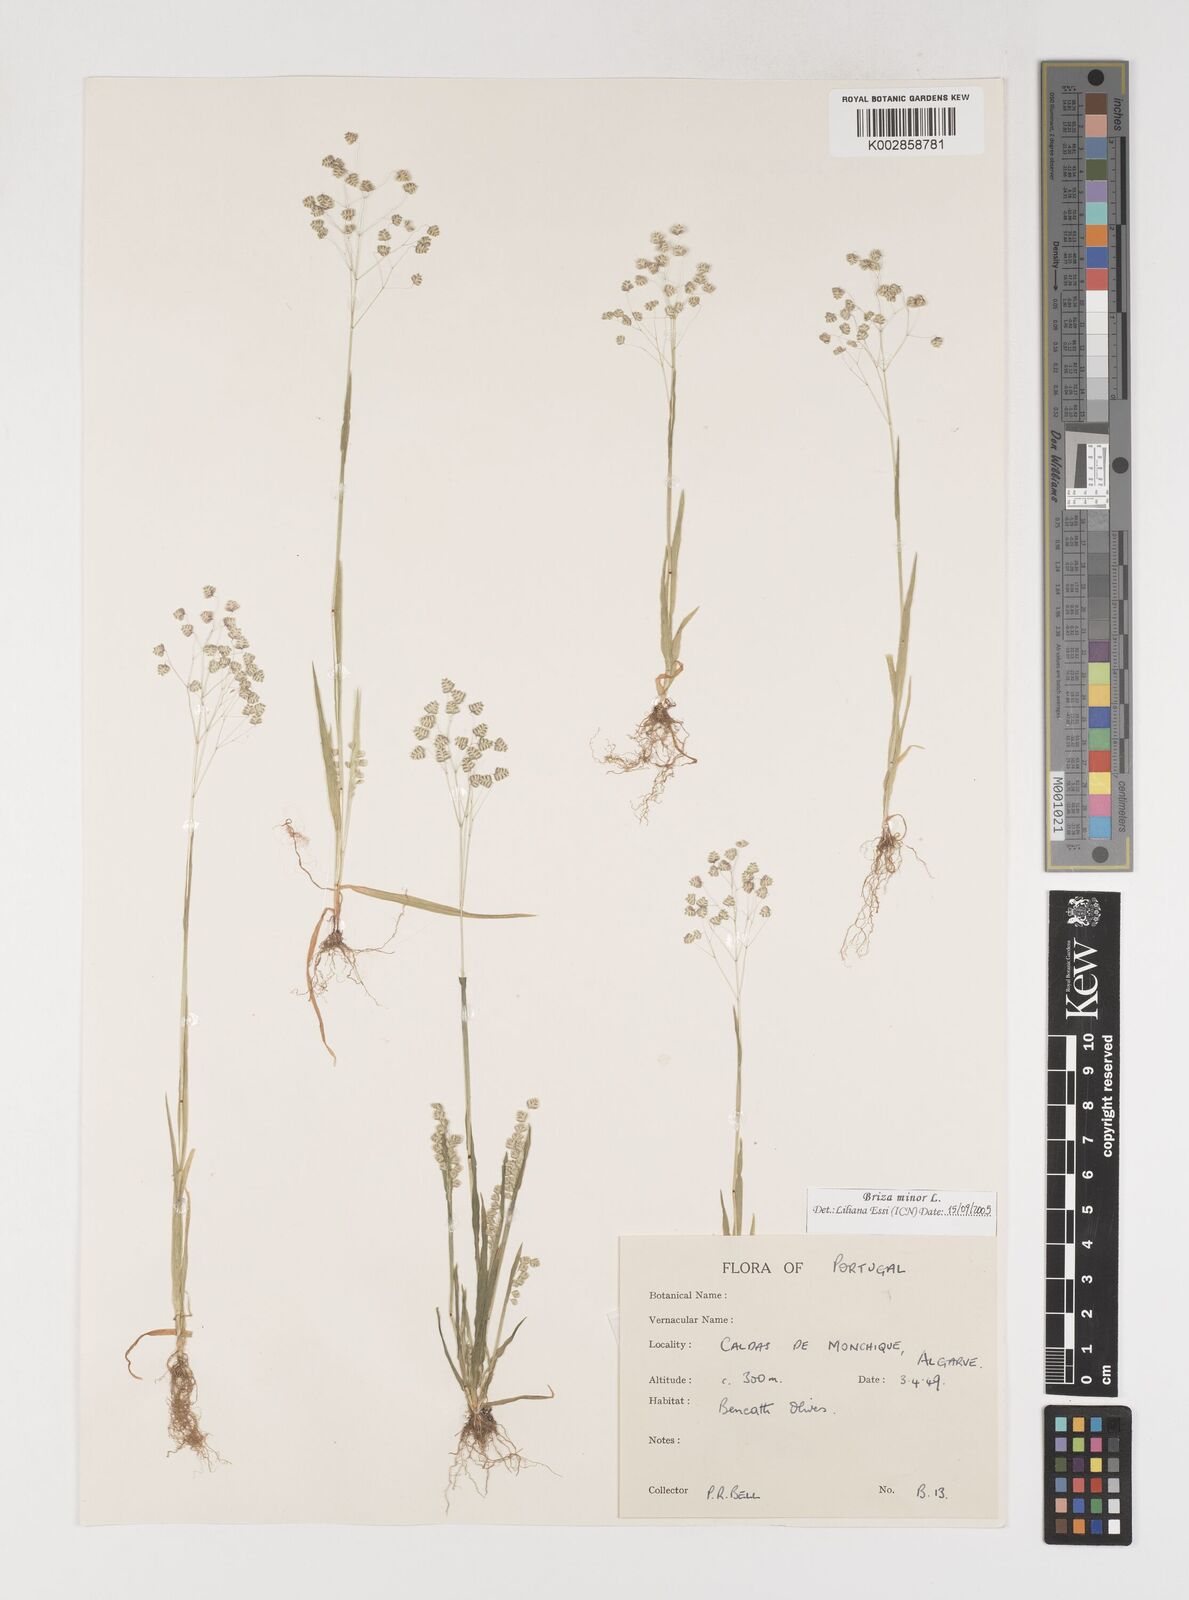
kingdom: Plantae
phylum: Tracheophyta
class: Liliopsida
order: Poales
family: Poaceae
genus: Briza
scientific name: Briza minor
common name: Lesser quaking-grass
